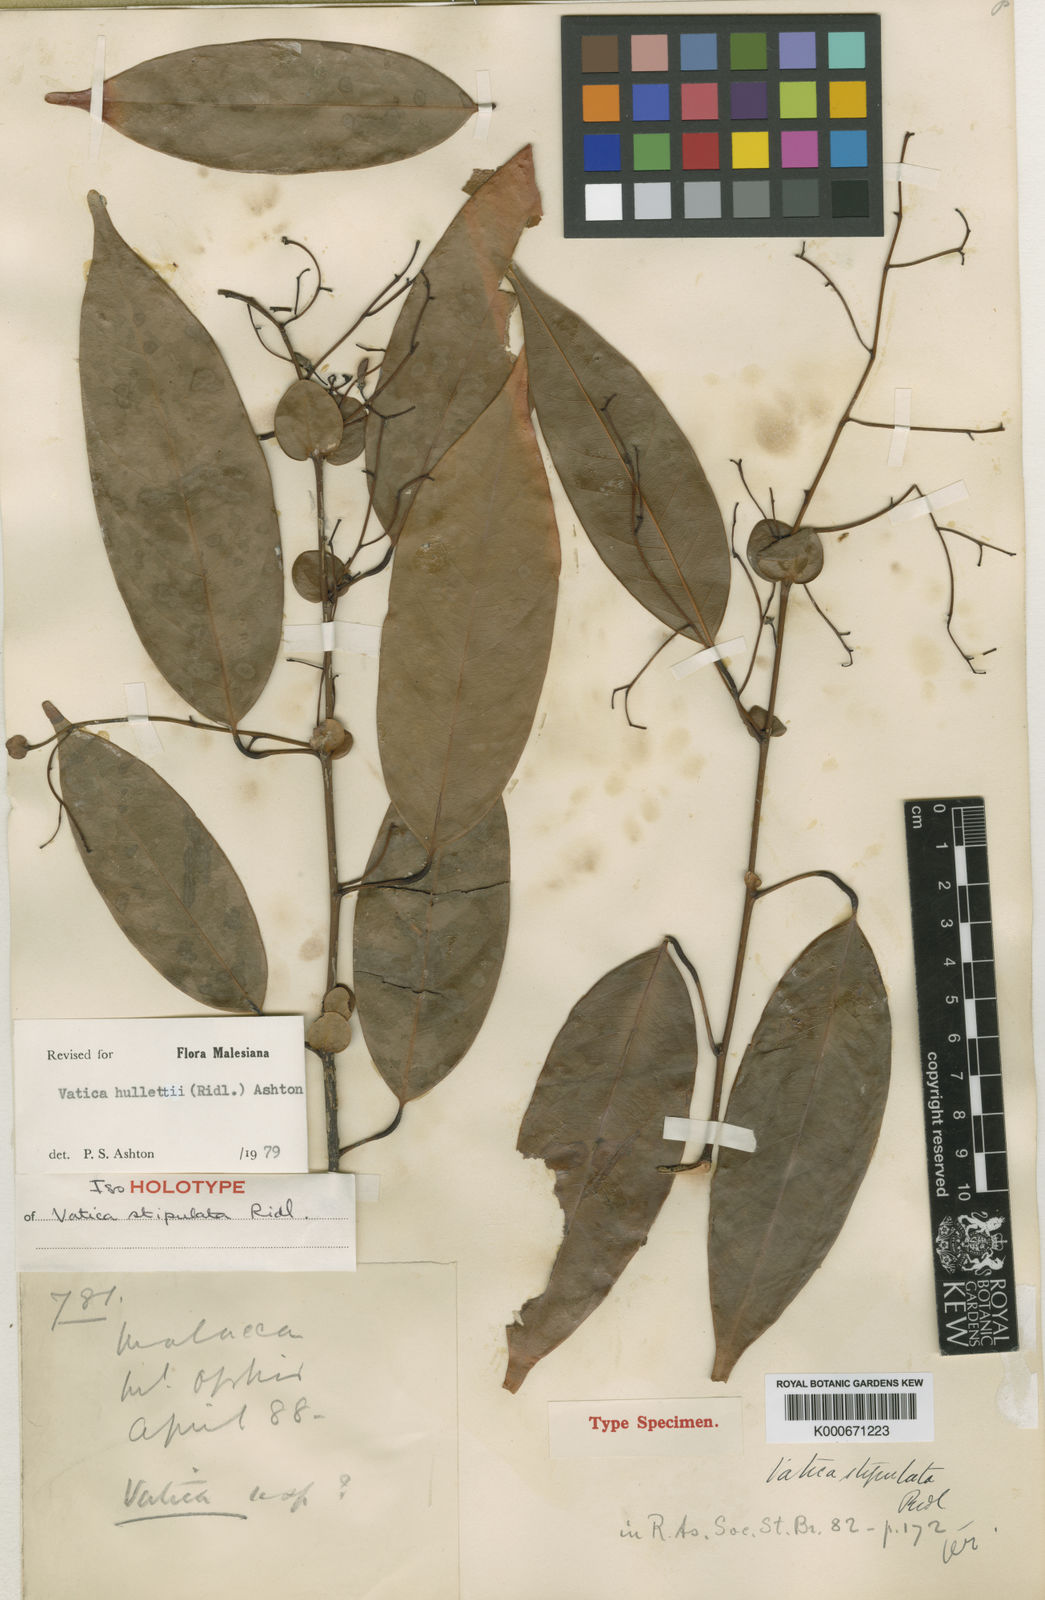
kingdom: Plantae
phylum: Tracheophyta
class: Magnoliopsida
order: Malvales
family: Dipterocarpaceae
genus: Vatica
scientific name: Vatica hullettii
